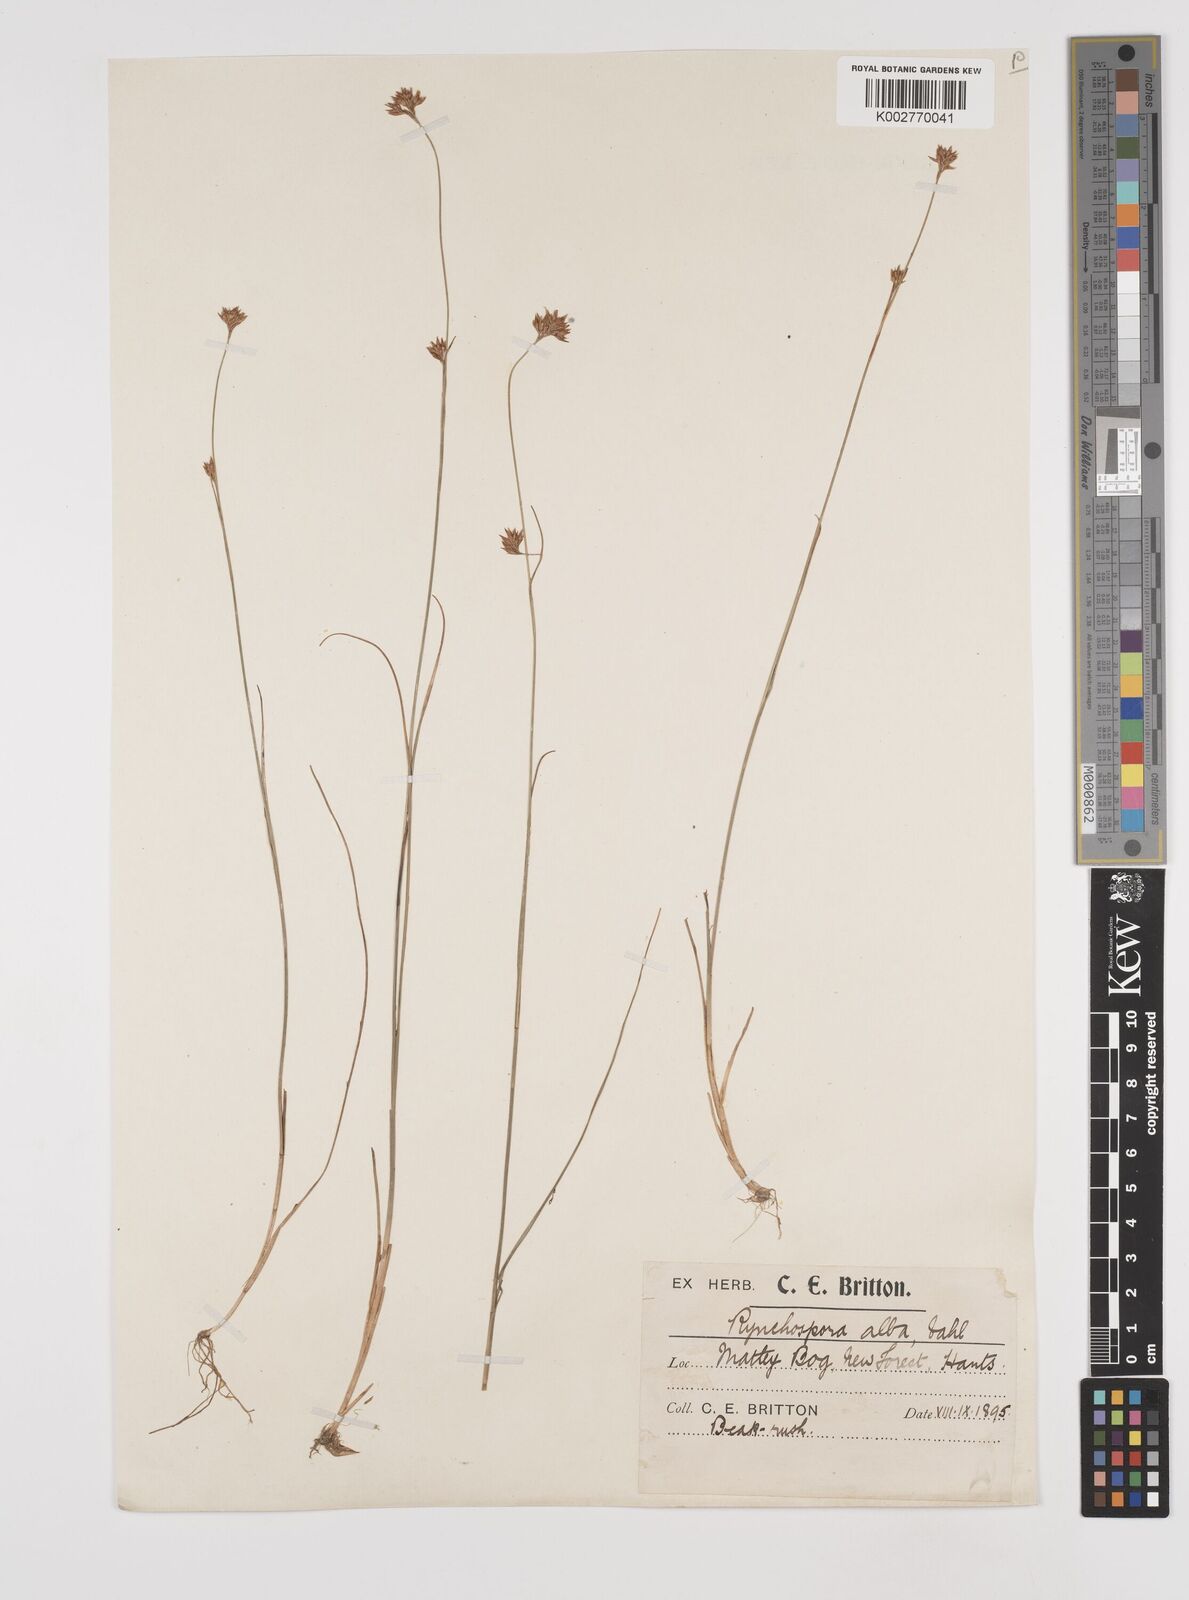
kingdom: Plantae
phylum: Tracheophyta
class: Liliopsida
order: Poales
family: Cyperaceae
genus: Rhynchospora
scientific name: Rhynchospora alba
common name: White beak-sedge
